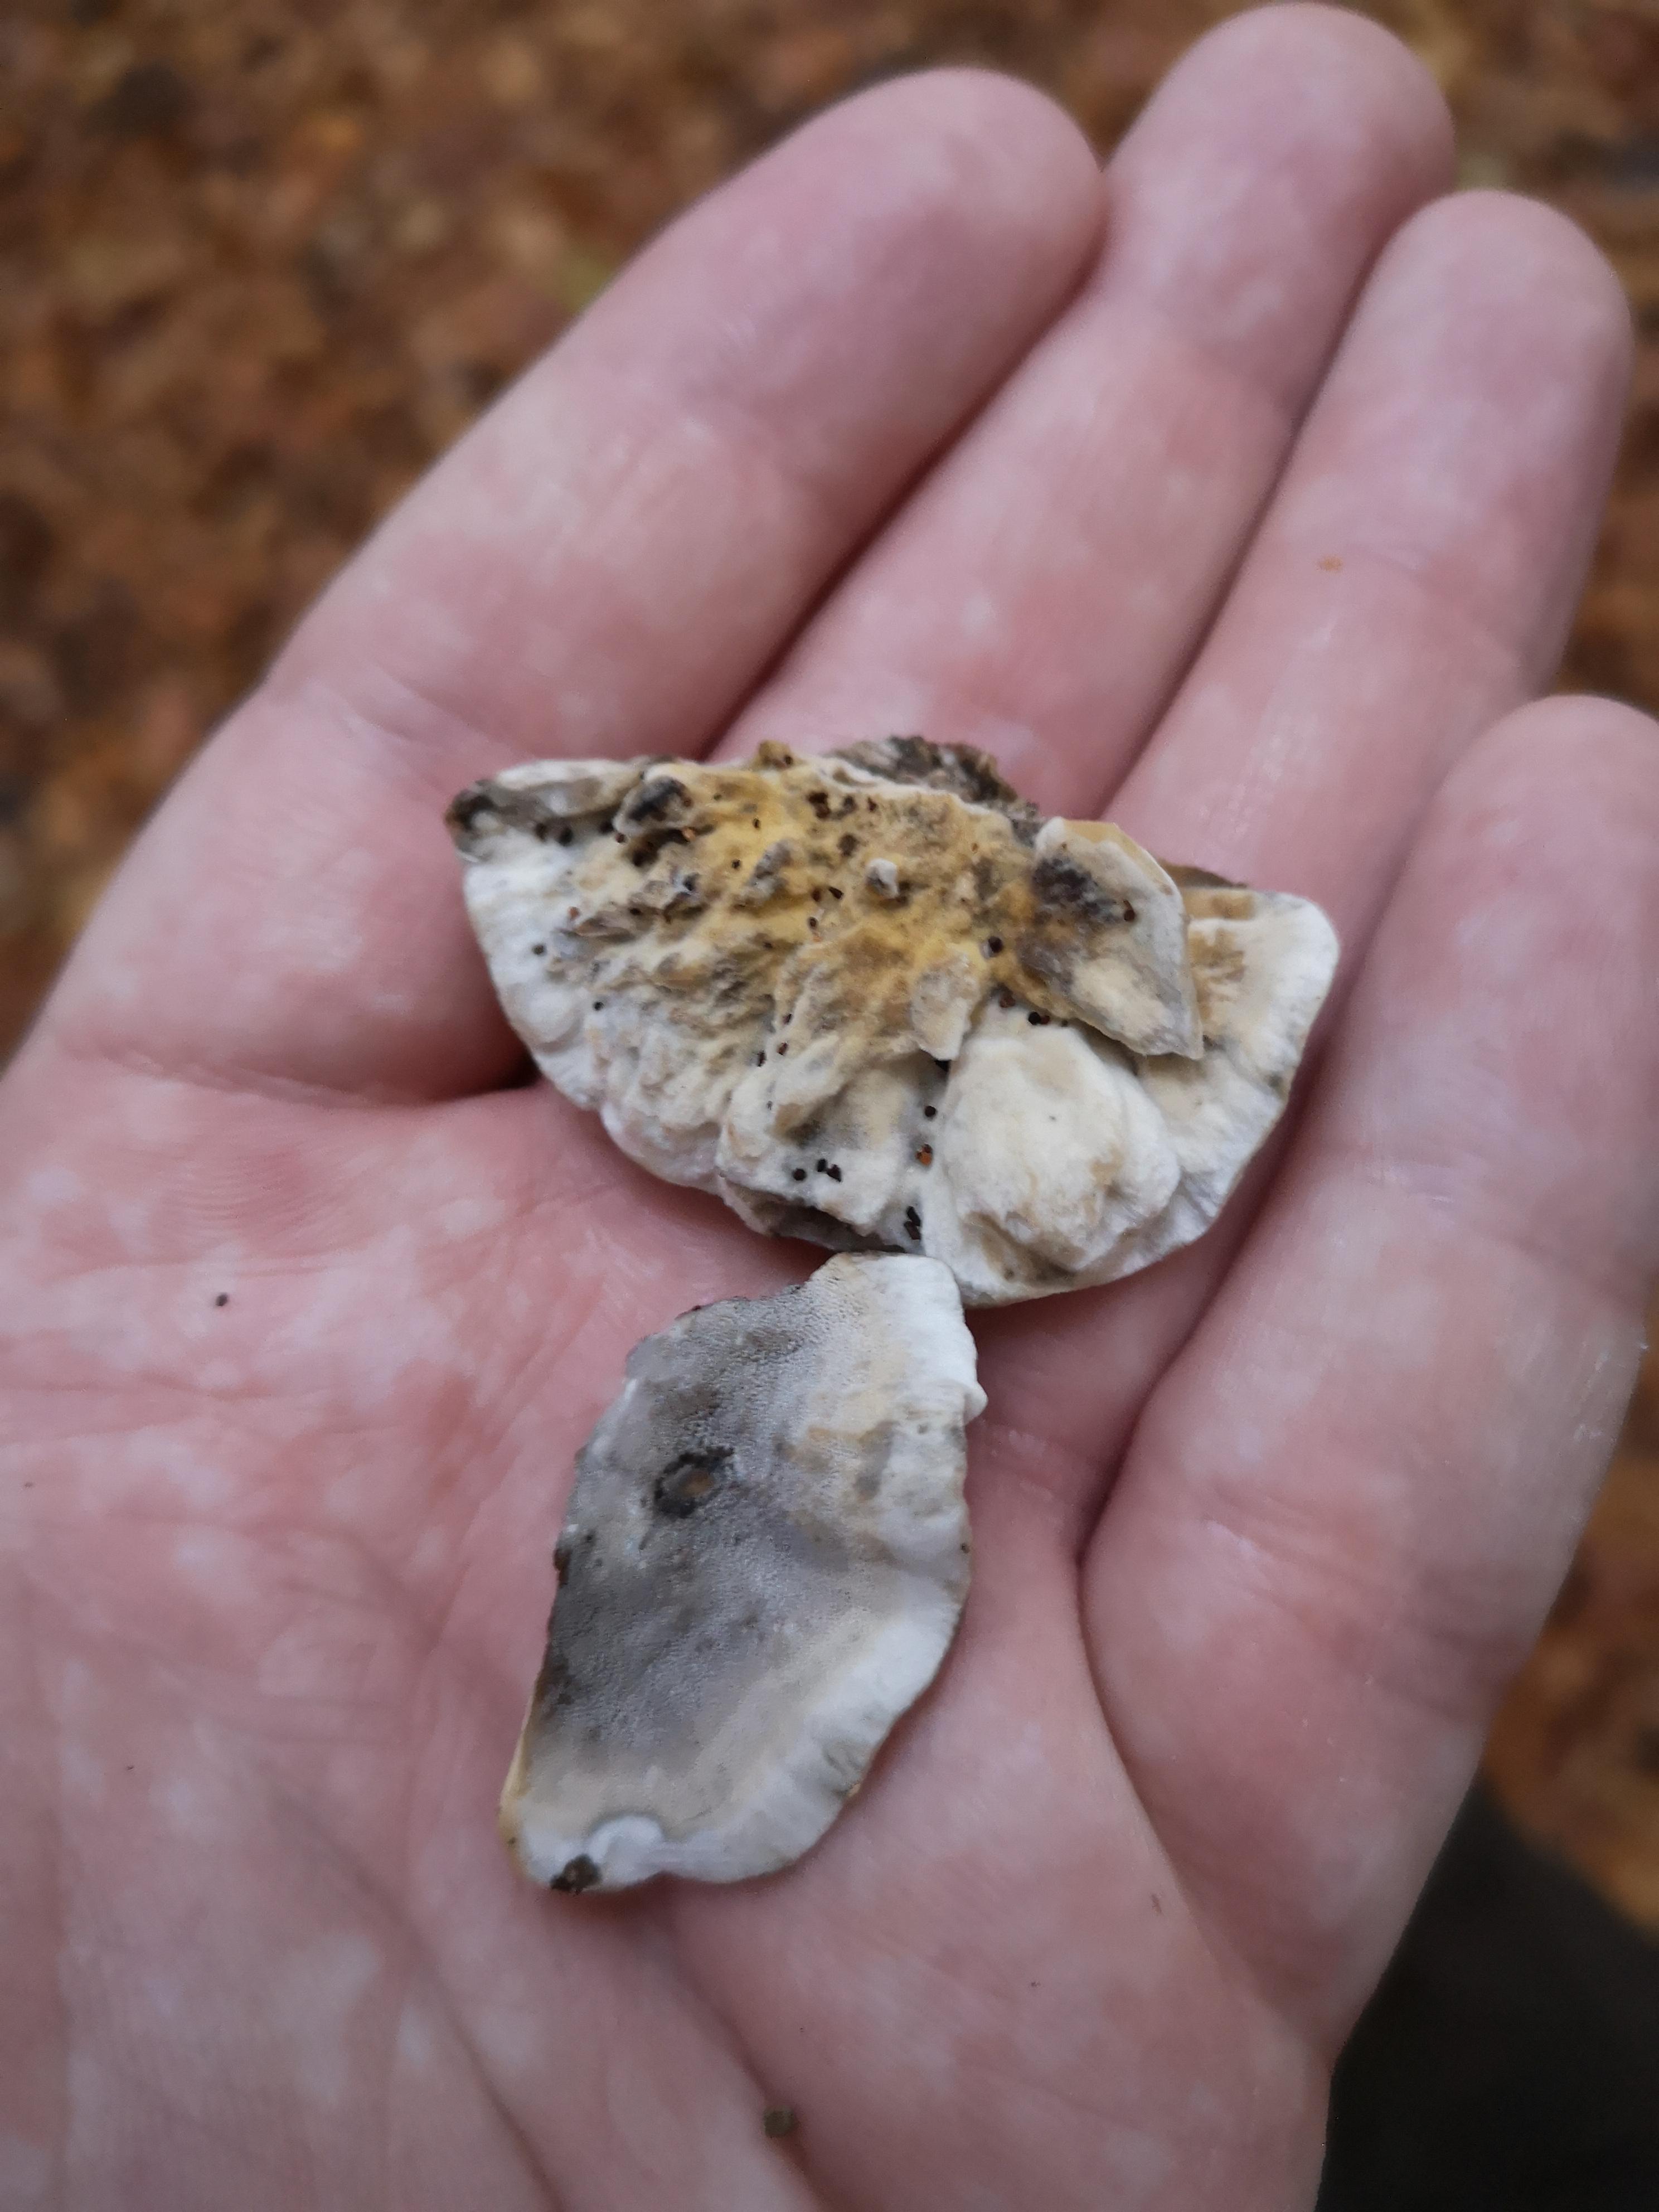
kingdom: Fungi
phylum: Basidiomycota
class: Agaricomycetes
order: Polyporales
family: Phanerochaetaceae
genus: Bjerkandera
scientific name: Bjerkandera adusta
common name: sveden sodporesvamp
